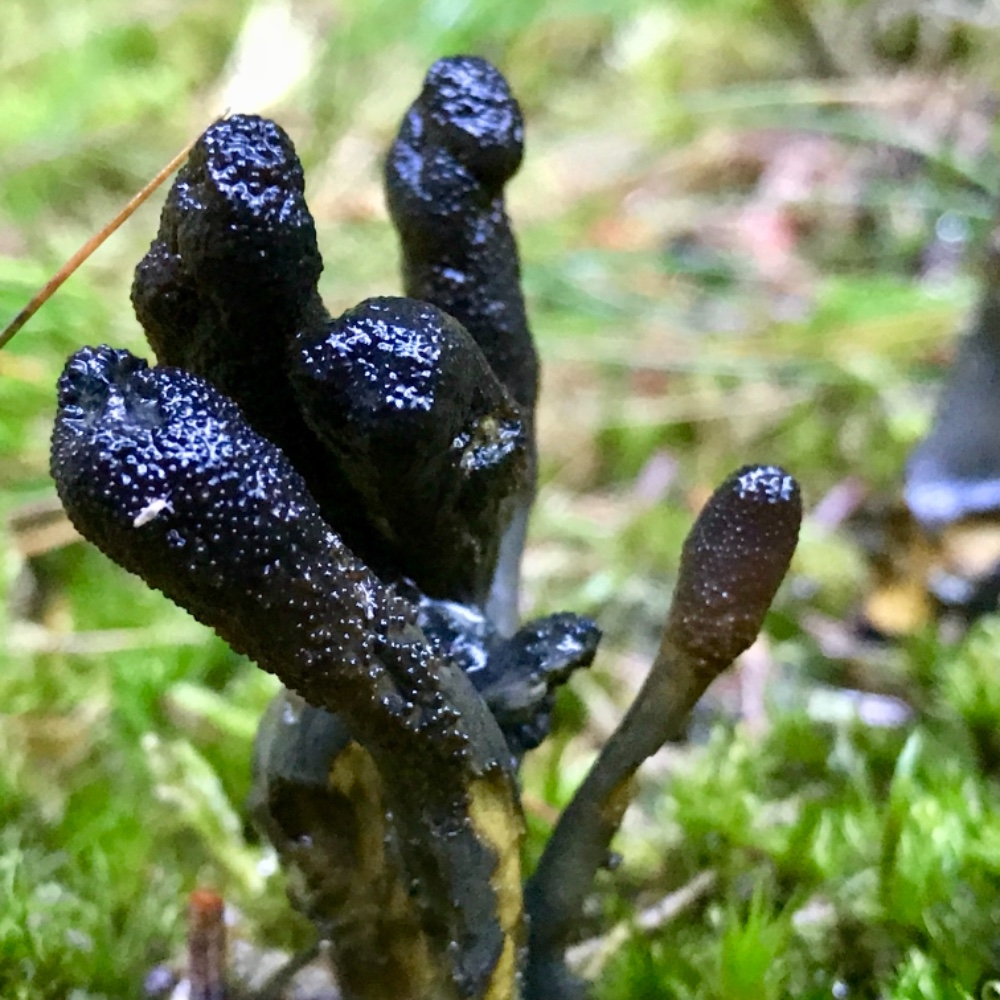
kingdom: Fungi
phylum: Ascomycota
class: Sordariomycetes
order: Hypocreales
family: Ophiocordycipitaceae
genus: Tolypocladium
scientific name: Tolypocladium ophioglossoides
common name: slank snyltekølle
